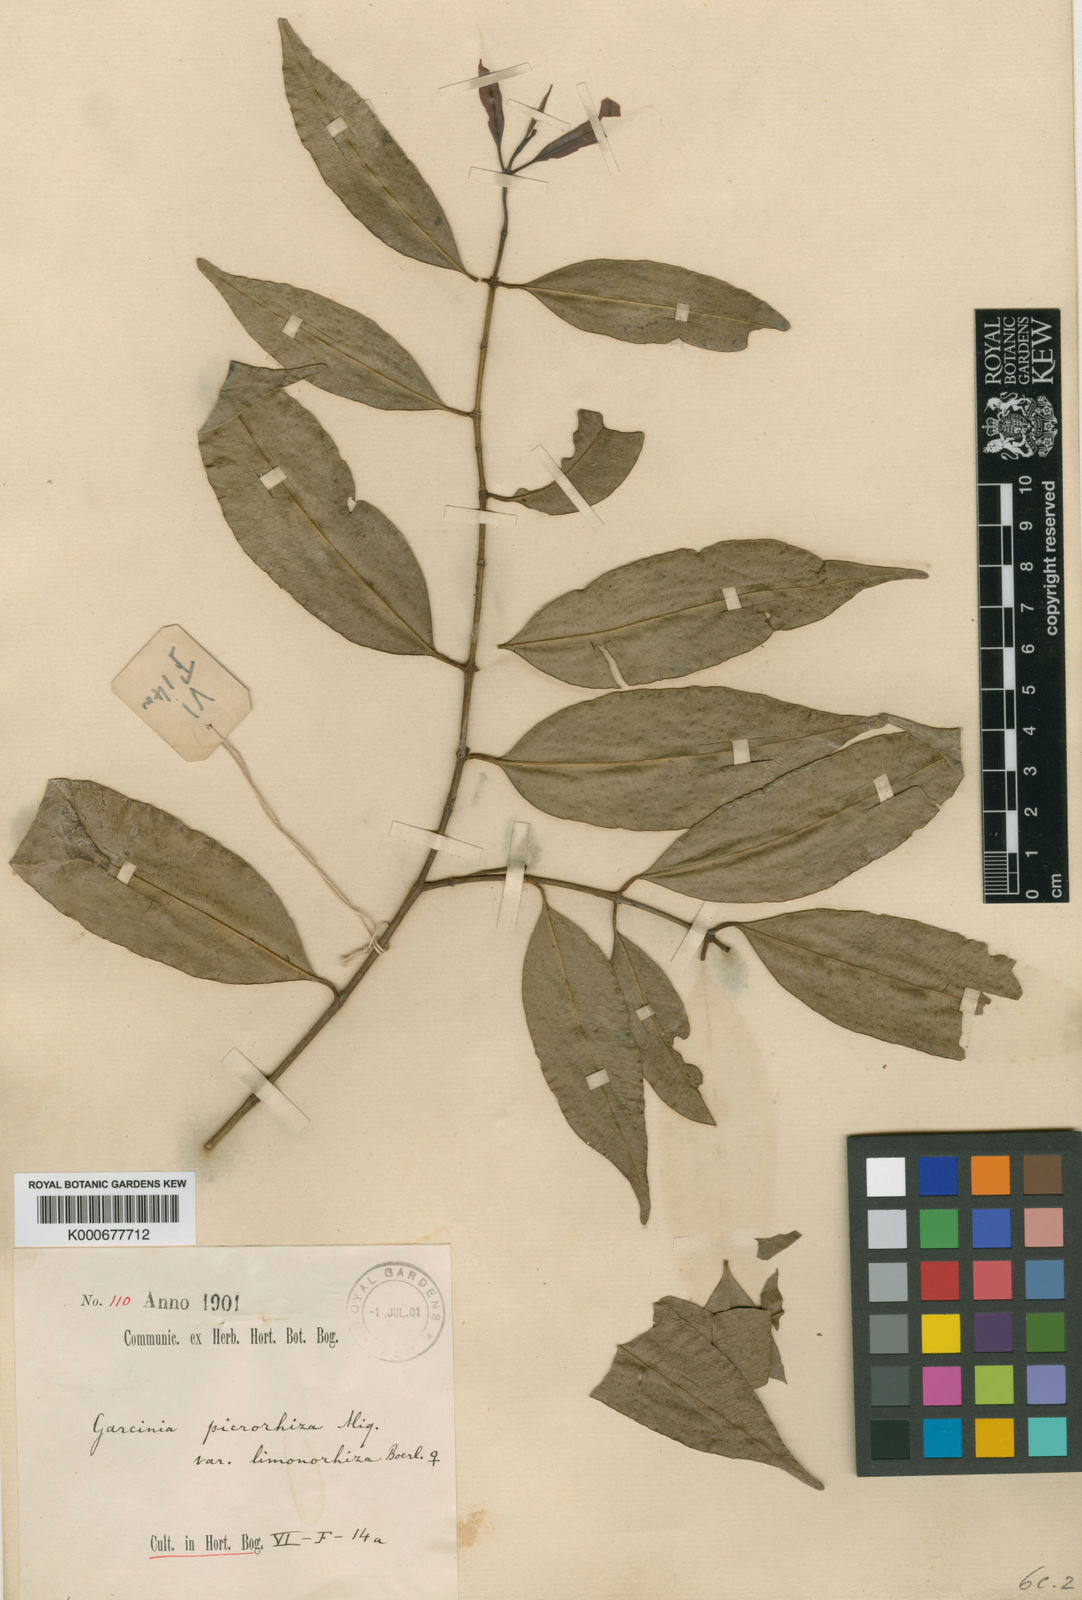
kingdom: Plantae
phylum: Tracheophyta
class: Magnoliopsida
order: Malpighiales
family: Clusiaceae
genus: Garcinia
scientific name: Garcinia picrorhiza
